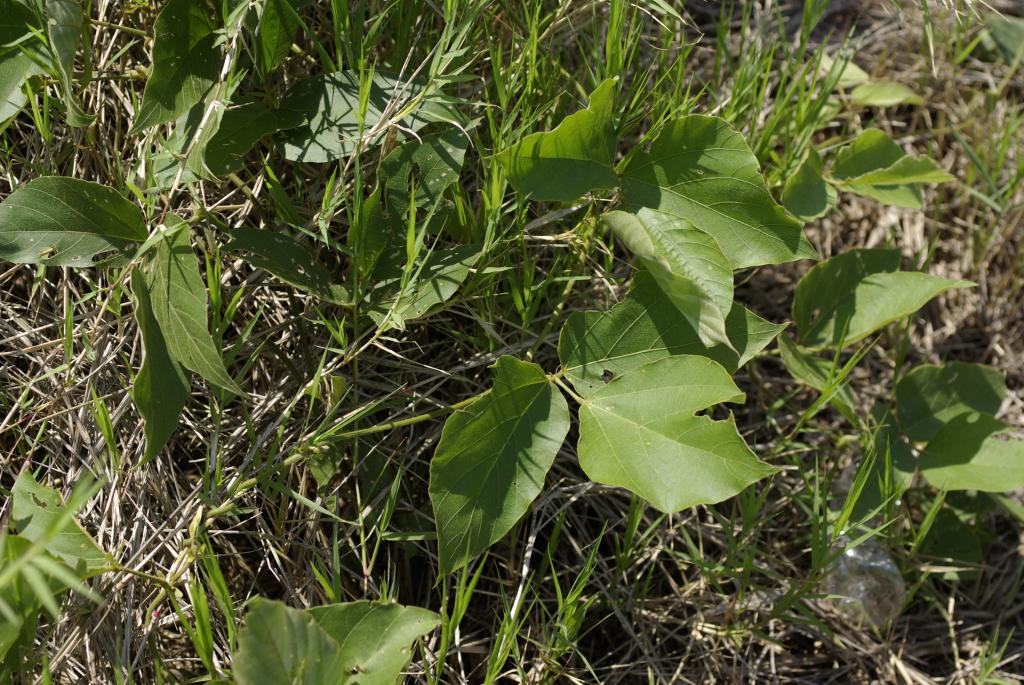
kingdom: Plantae
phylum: Tracheophyta
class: Magnoliopsida
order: Fabales
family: Fabaceae
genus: Pueraria
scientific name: Pueraria montana
